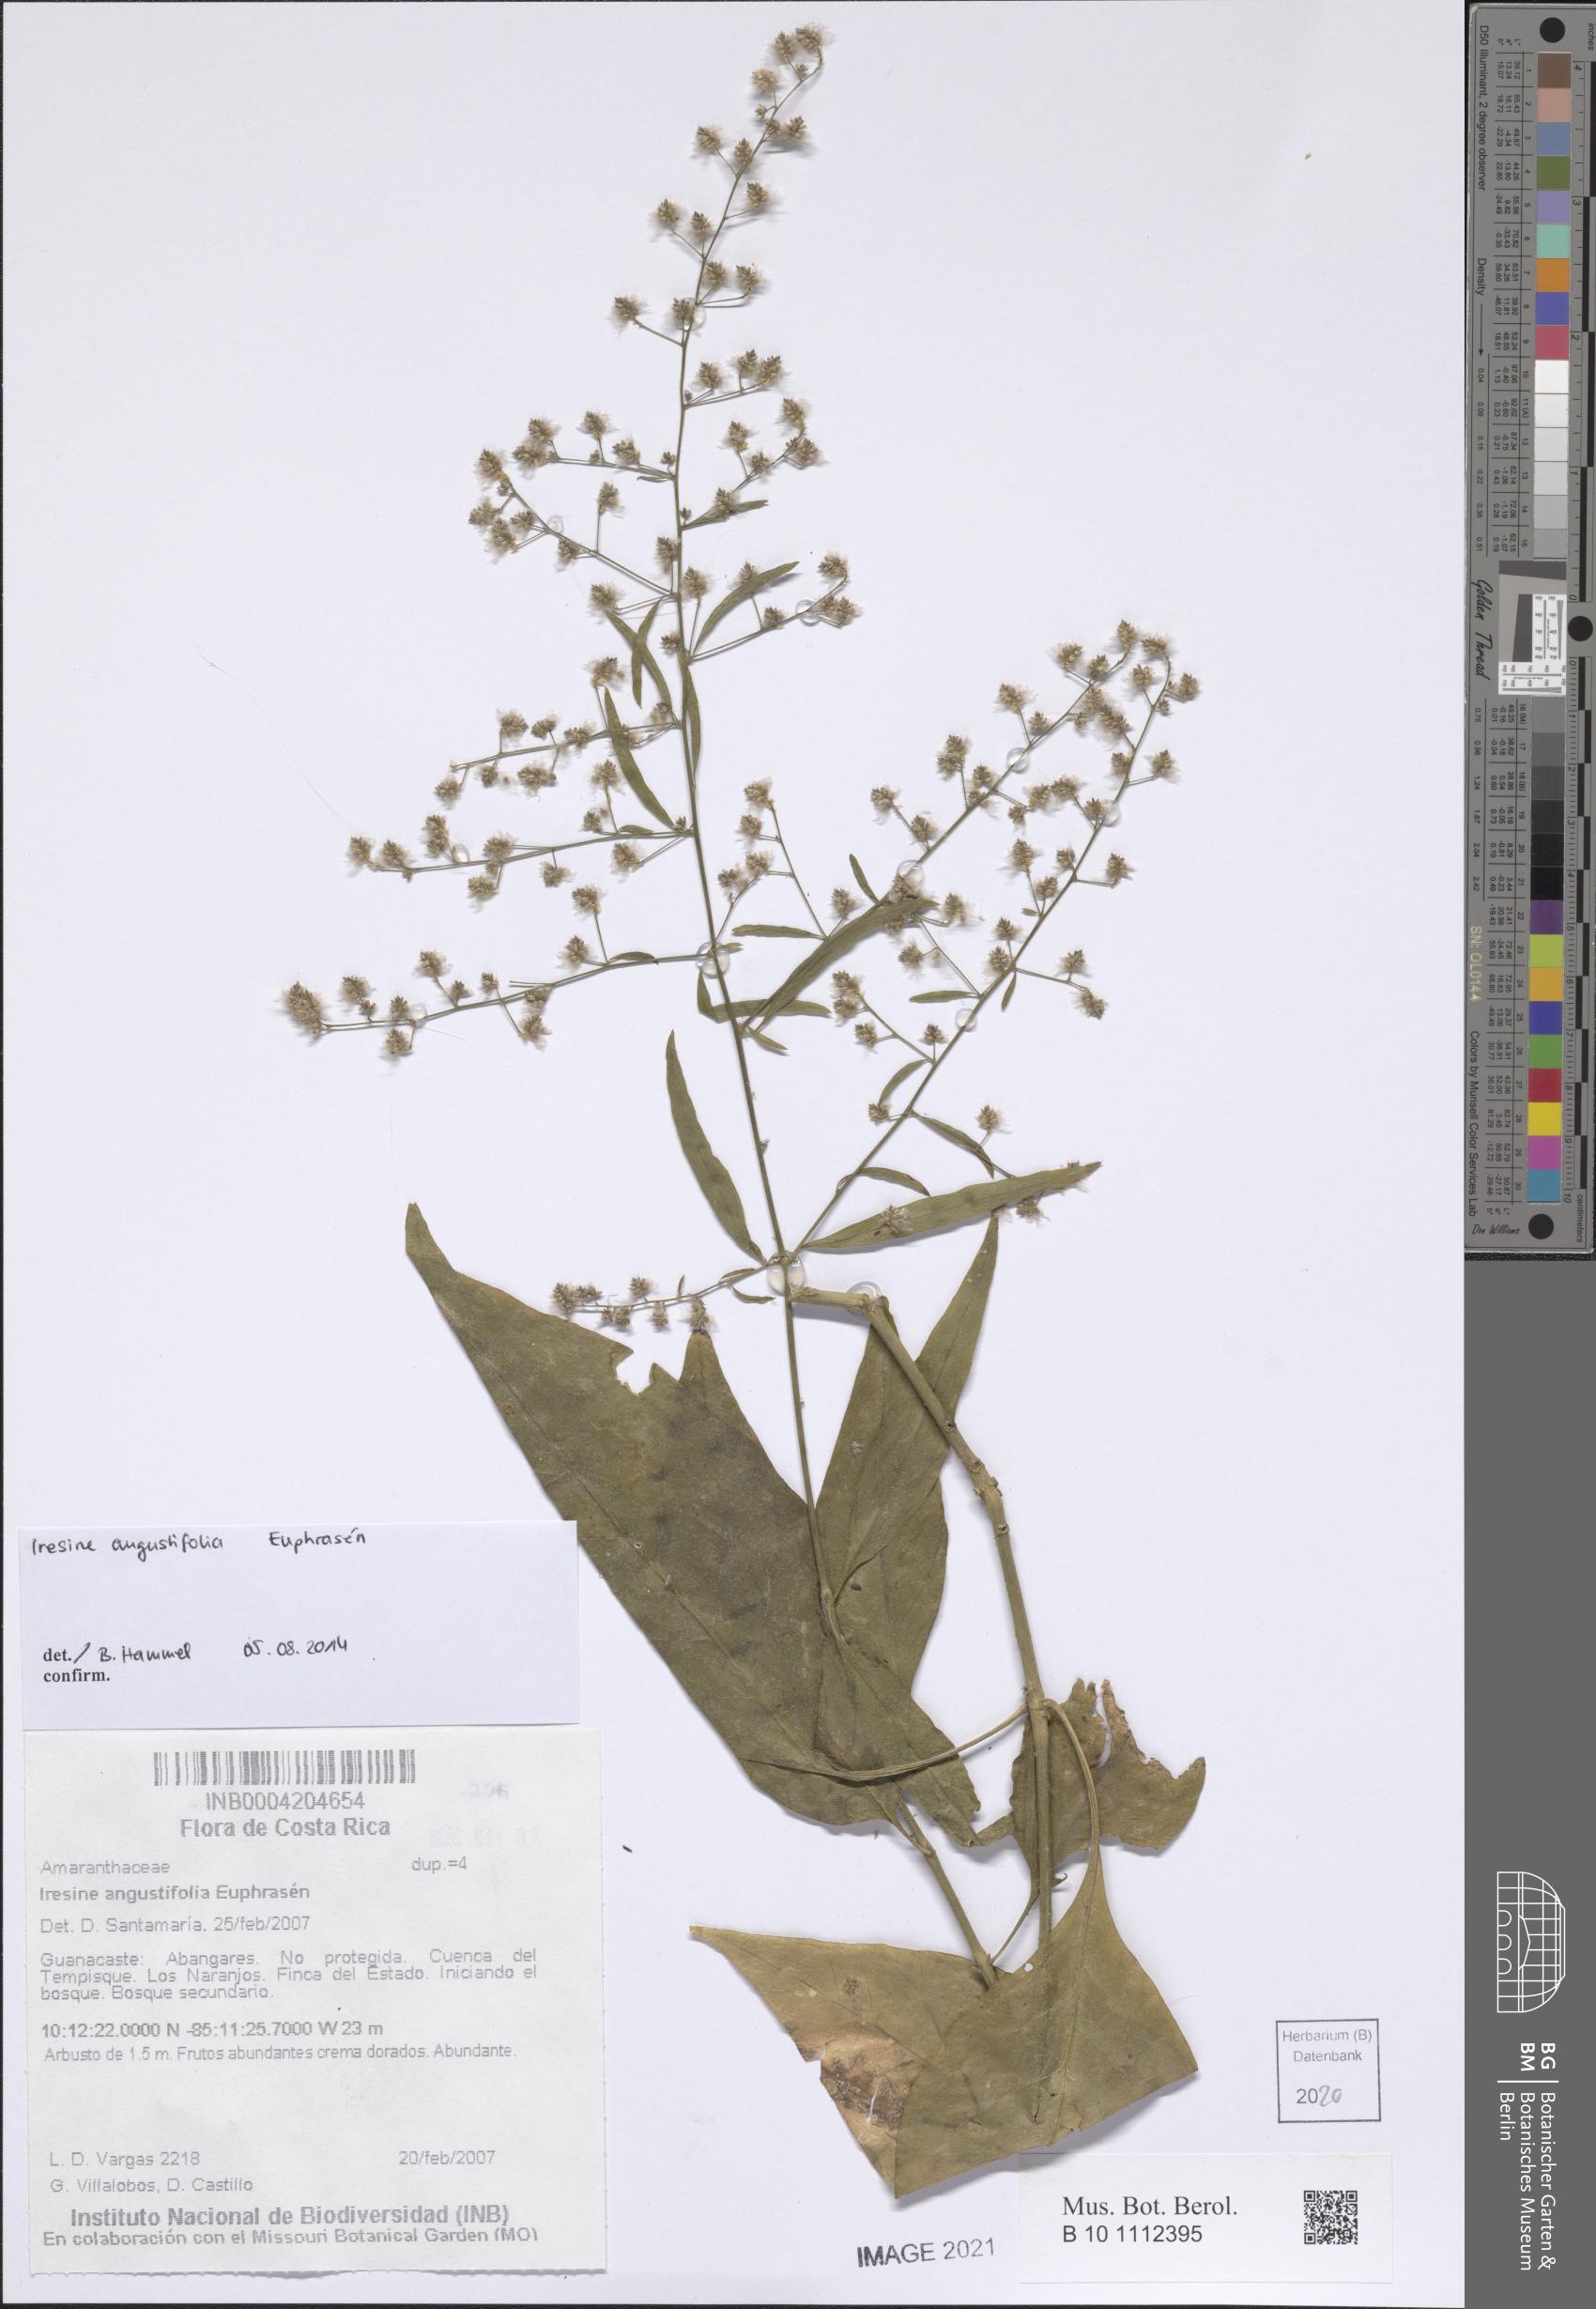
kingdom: Plantae
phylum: Tracheophyta
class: Magnoliopsida
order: Caryophyllales
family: Amaranthaceae
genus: Iresine
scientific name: Iresine angustifolia
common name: White snowplant
